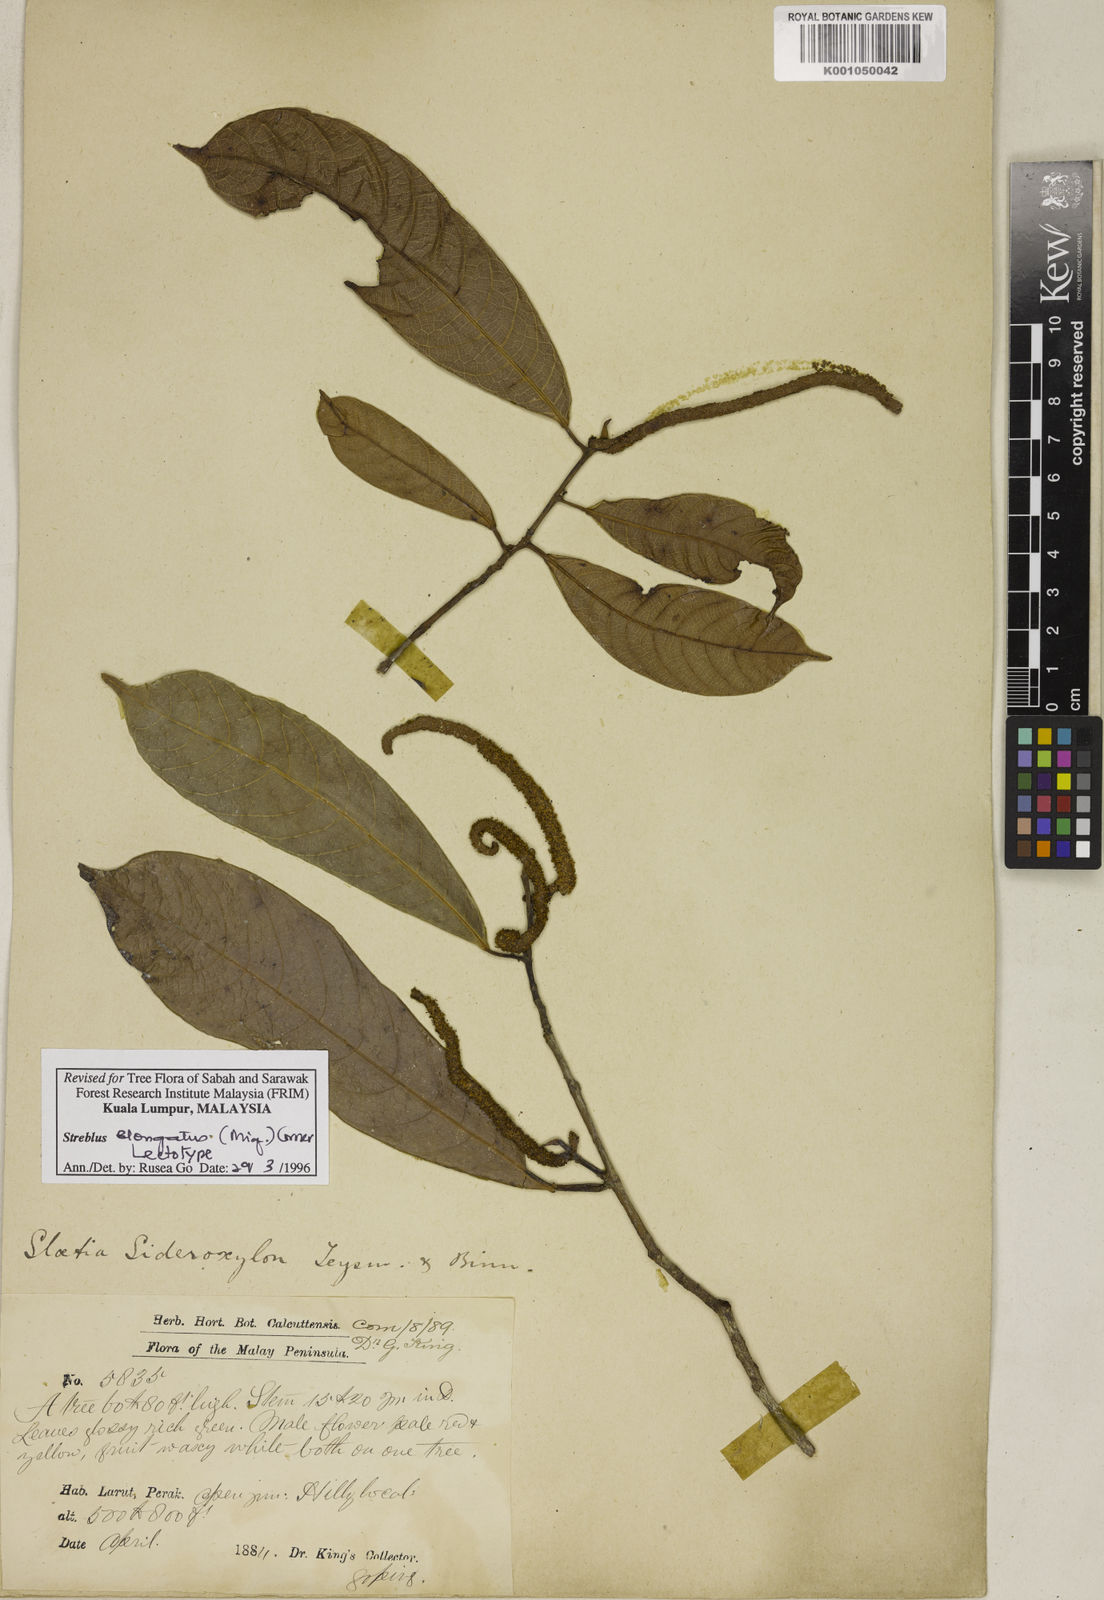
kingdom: Plantae
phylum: Tracheophyta
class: Magnoliopsida
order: Rosales
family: Moraceae
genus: Sloetia
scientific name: Sloetia elongata
